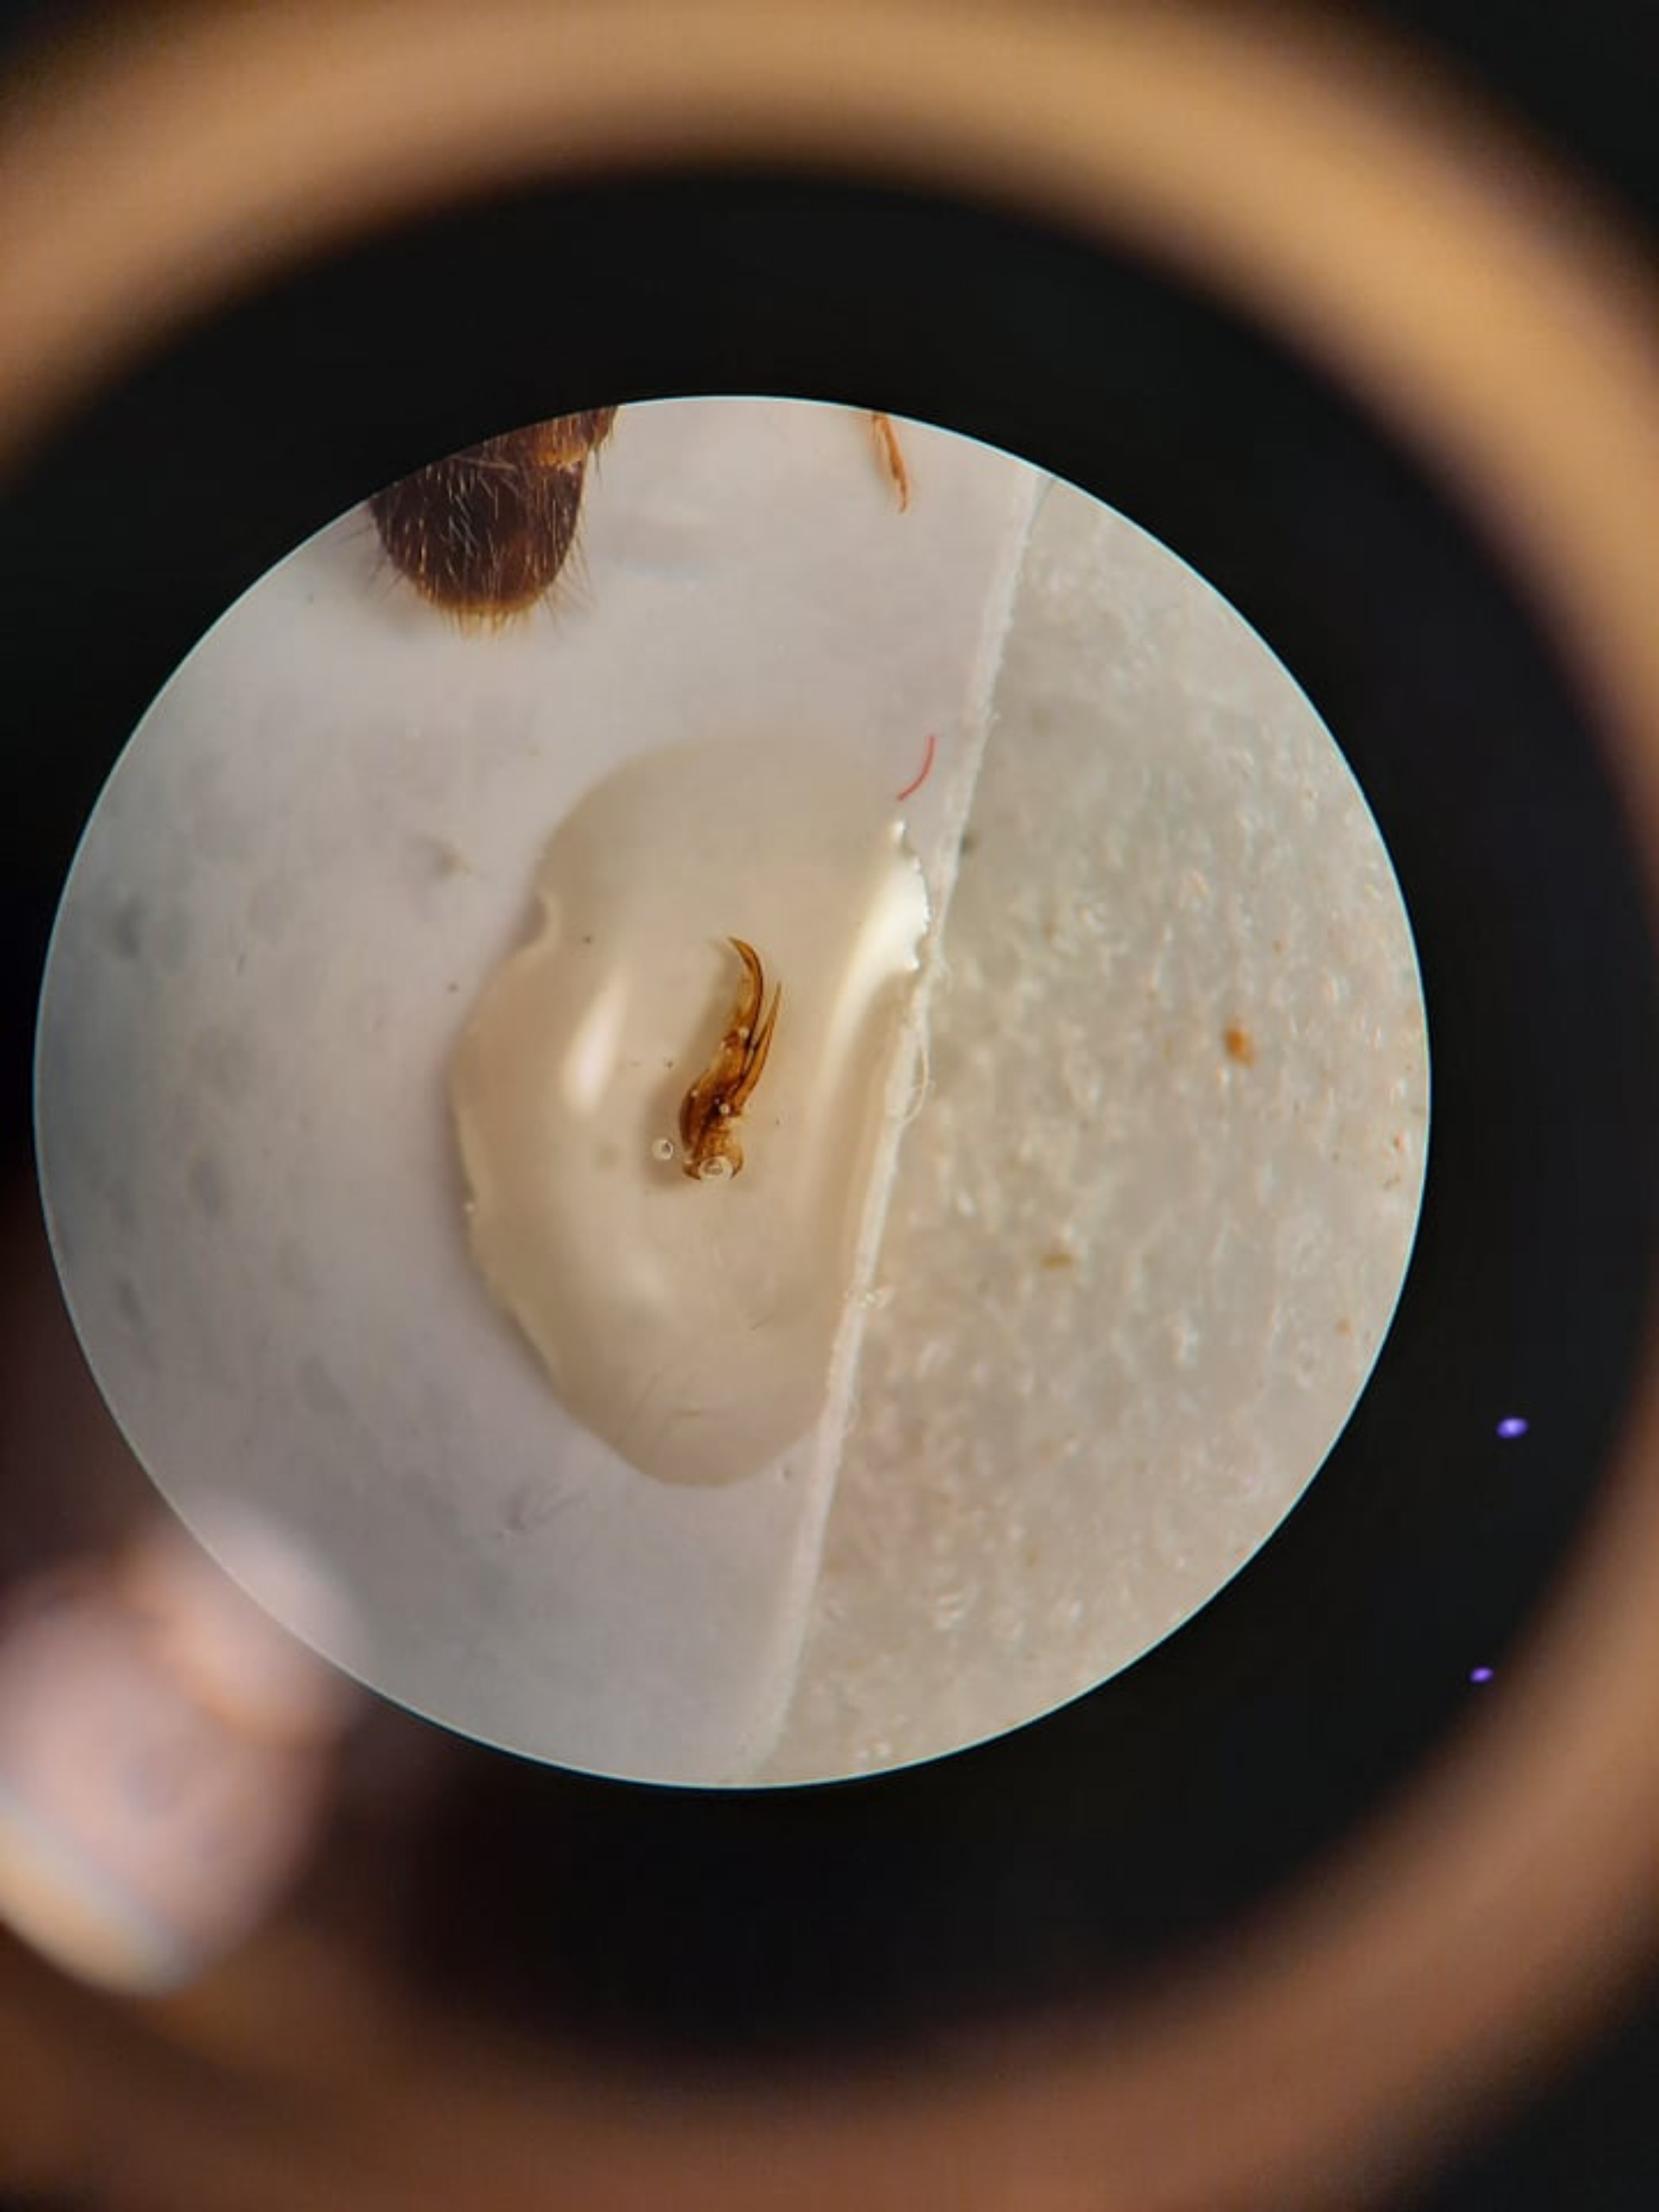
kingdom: Animalia
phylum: Arthropoda
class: Insecta
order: Coleoptera
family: Staphylinidae
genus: Philonthus
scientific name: Philonthus umbratilis
